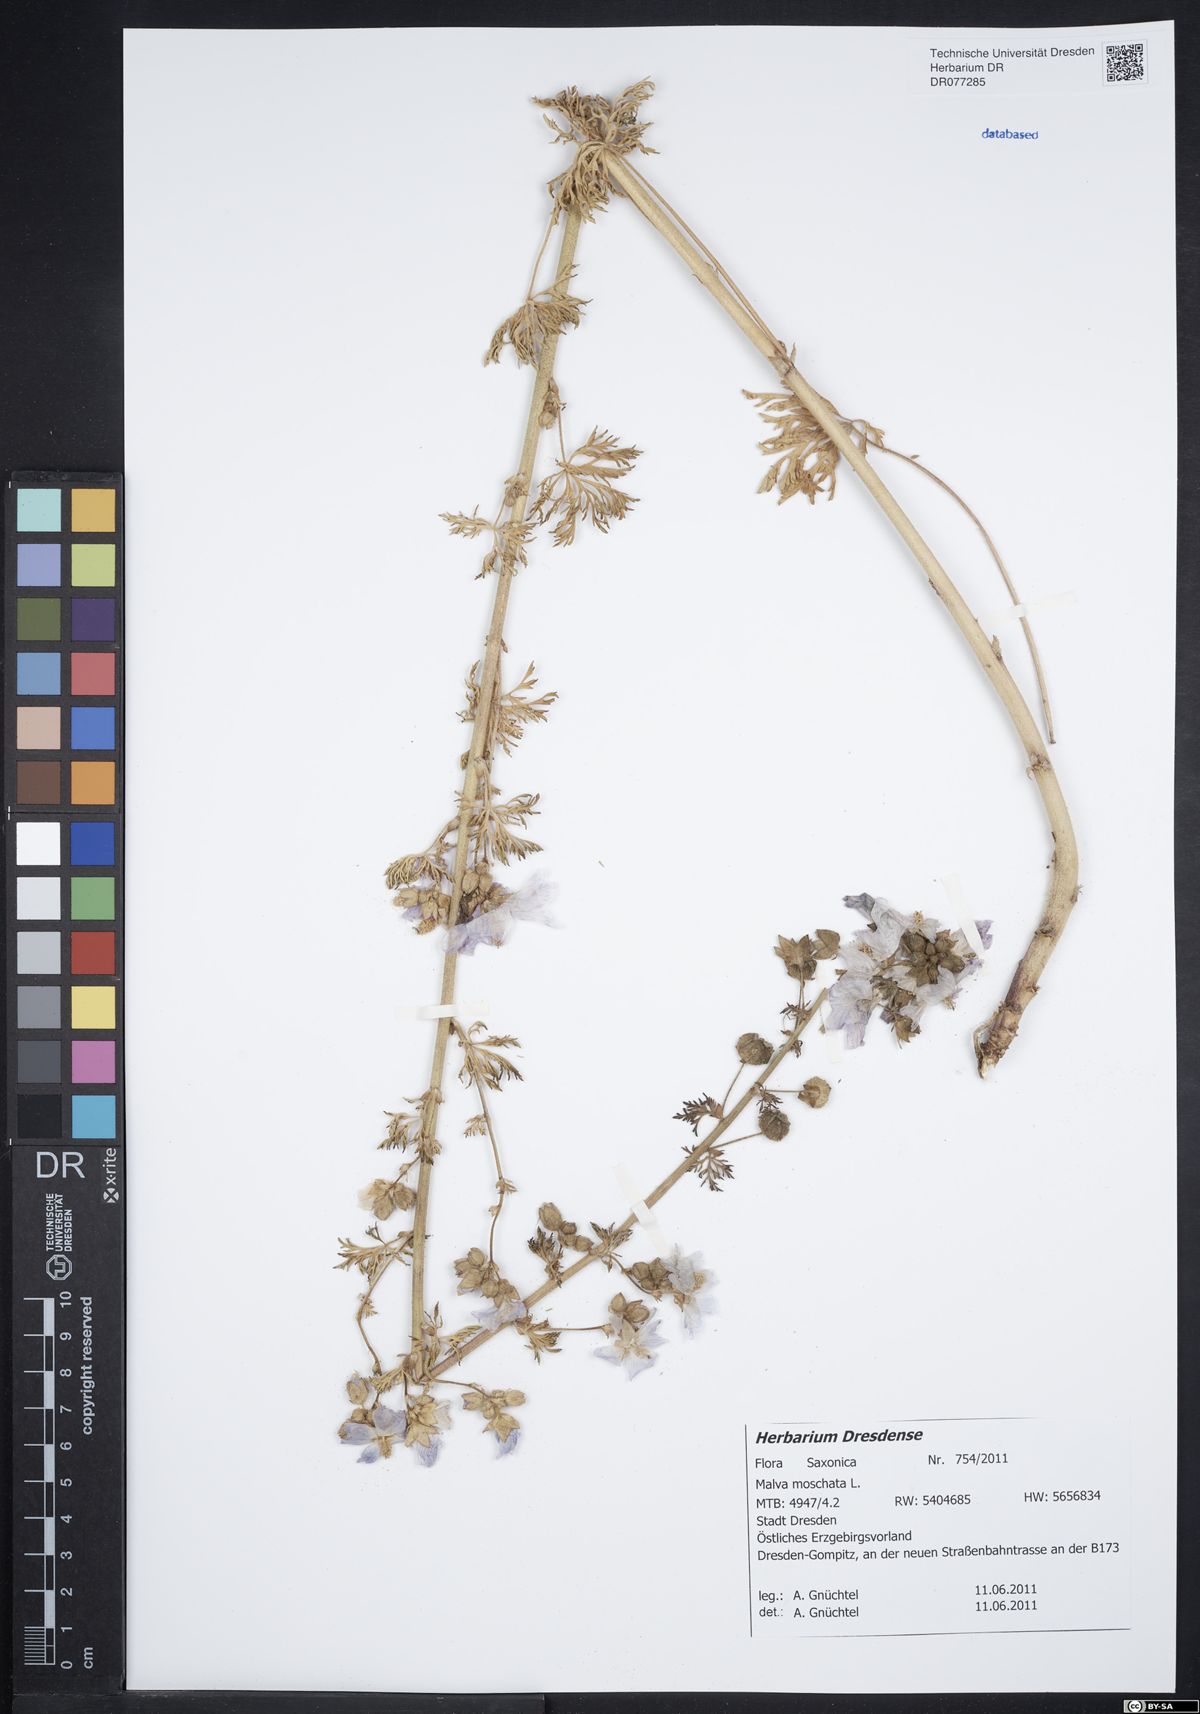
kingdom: Plantae
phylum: Tracheophyta
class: Magnoliopsida
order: Malvales
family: Malvaceae
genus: Malva
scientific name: Malva moschata
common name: Musk mallow
